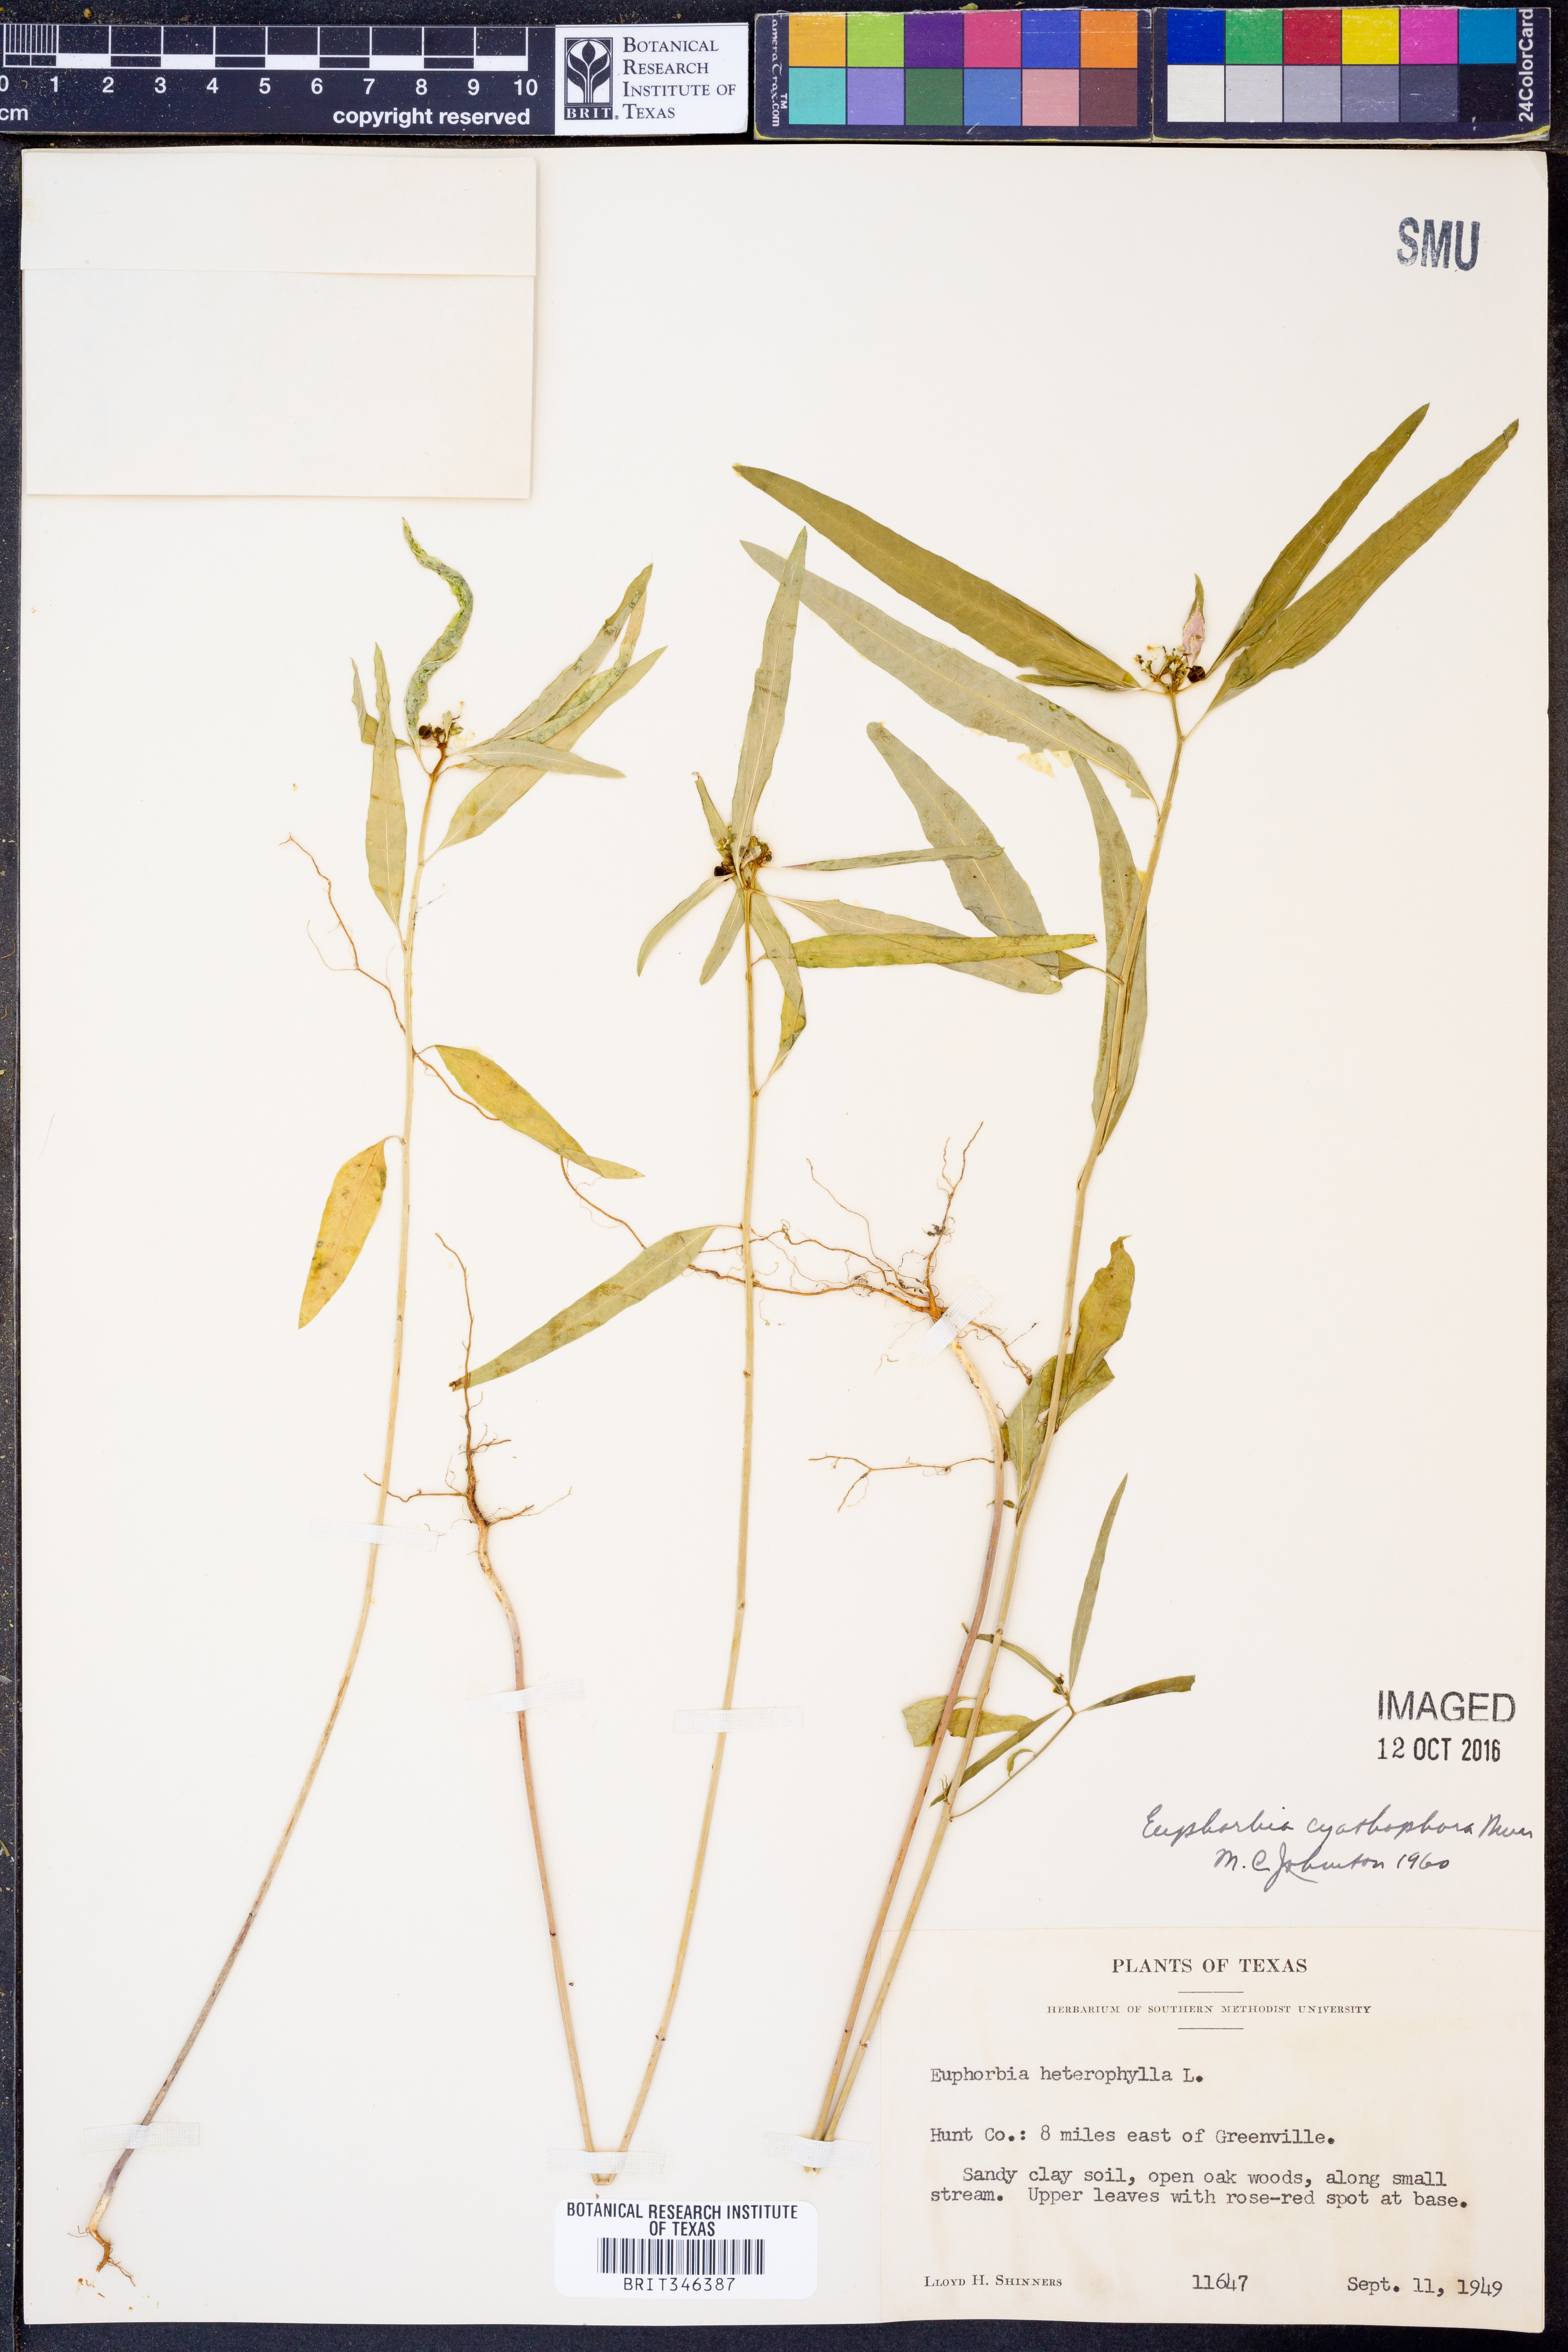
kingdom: Plantae
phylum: Tracheophyta
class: Magnoliopsida
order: Malpighiales
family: Euphorbiaceae
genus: Euphorbia
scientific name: Euphorbia heterophylla
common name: Mexican fireplant
